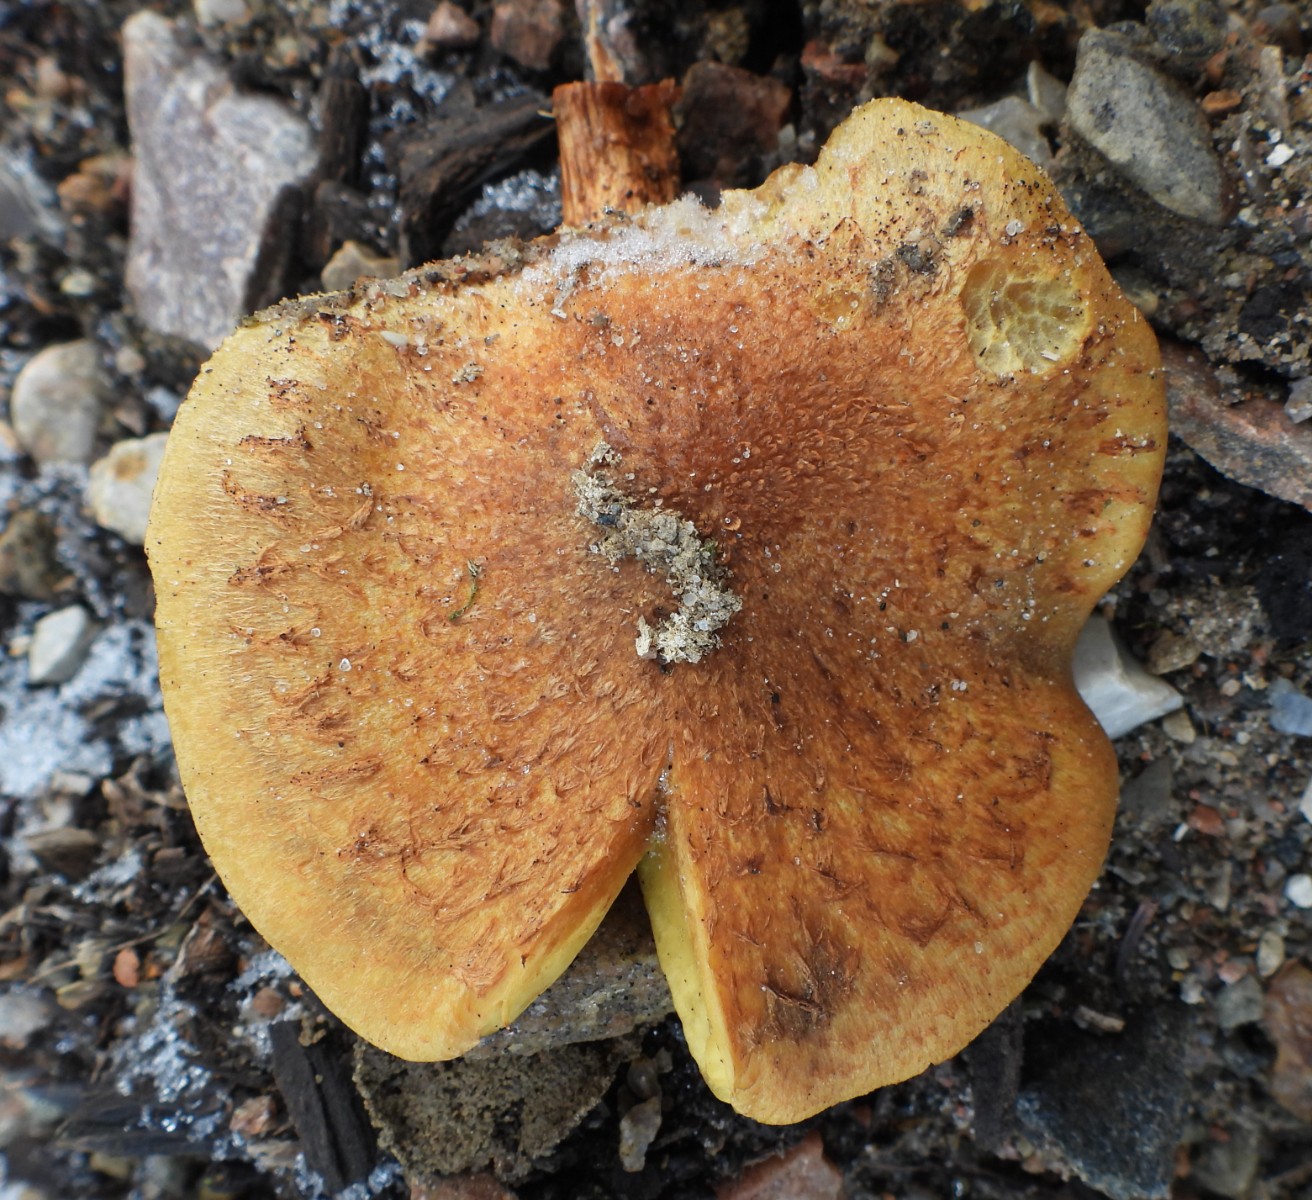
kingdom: Fungi
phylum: Basidiomycota
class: Agaricomycetes
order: Agaricales
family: Strophariaceae
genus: Pholiota
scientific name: Pholiota squarrosa
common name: krumskællet skælhat
